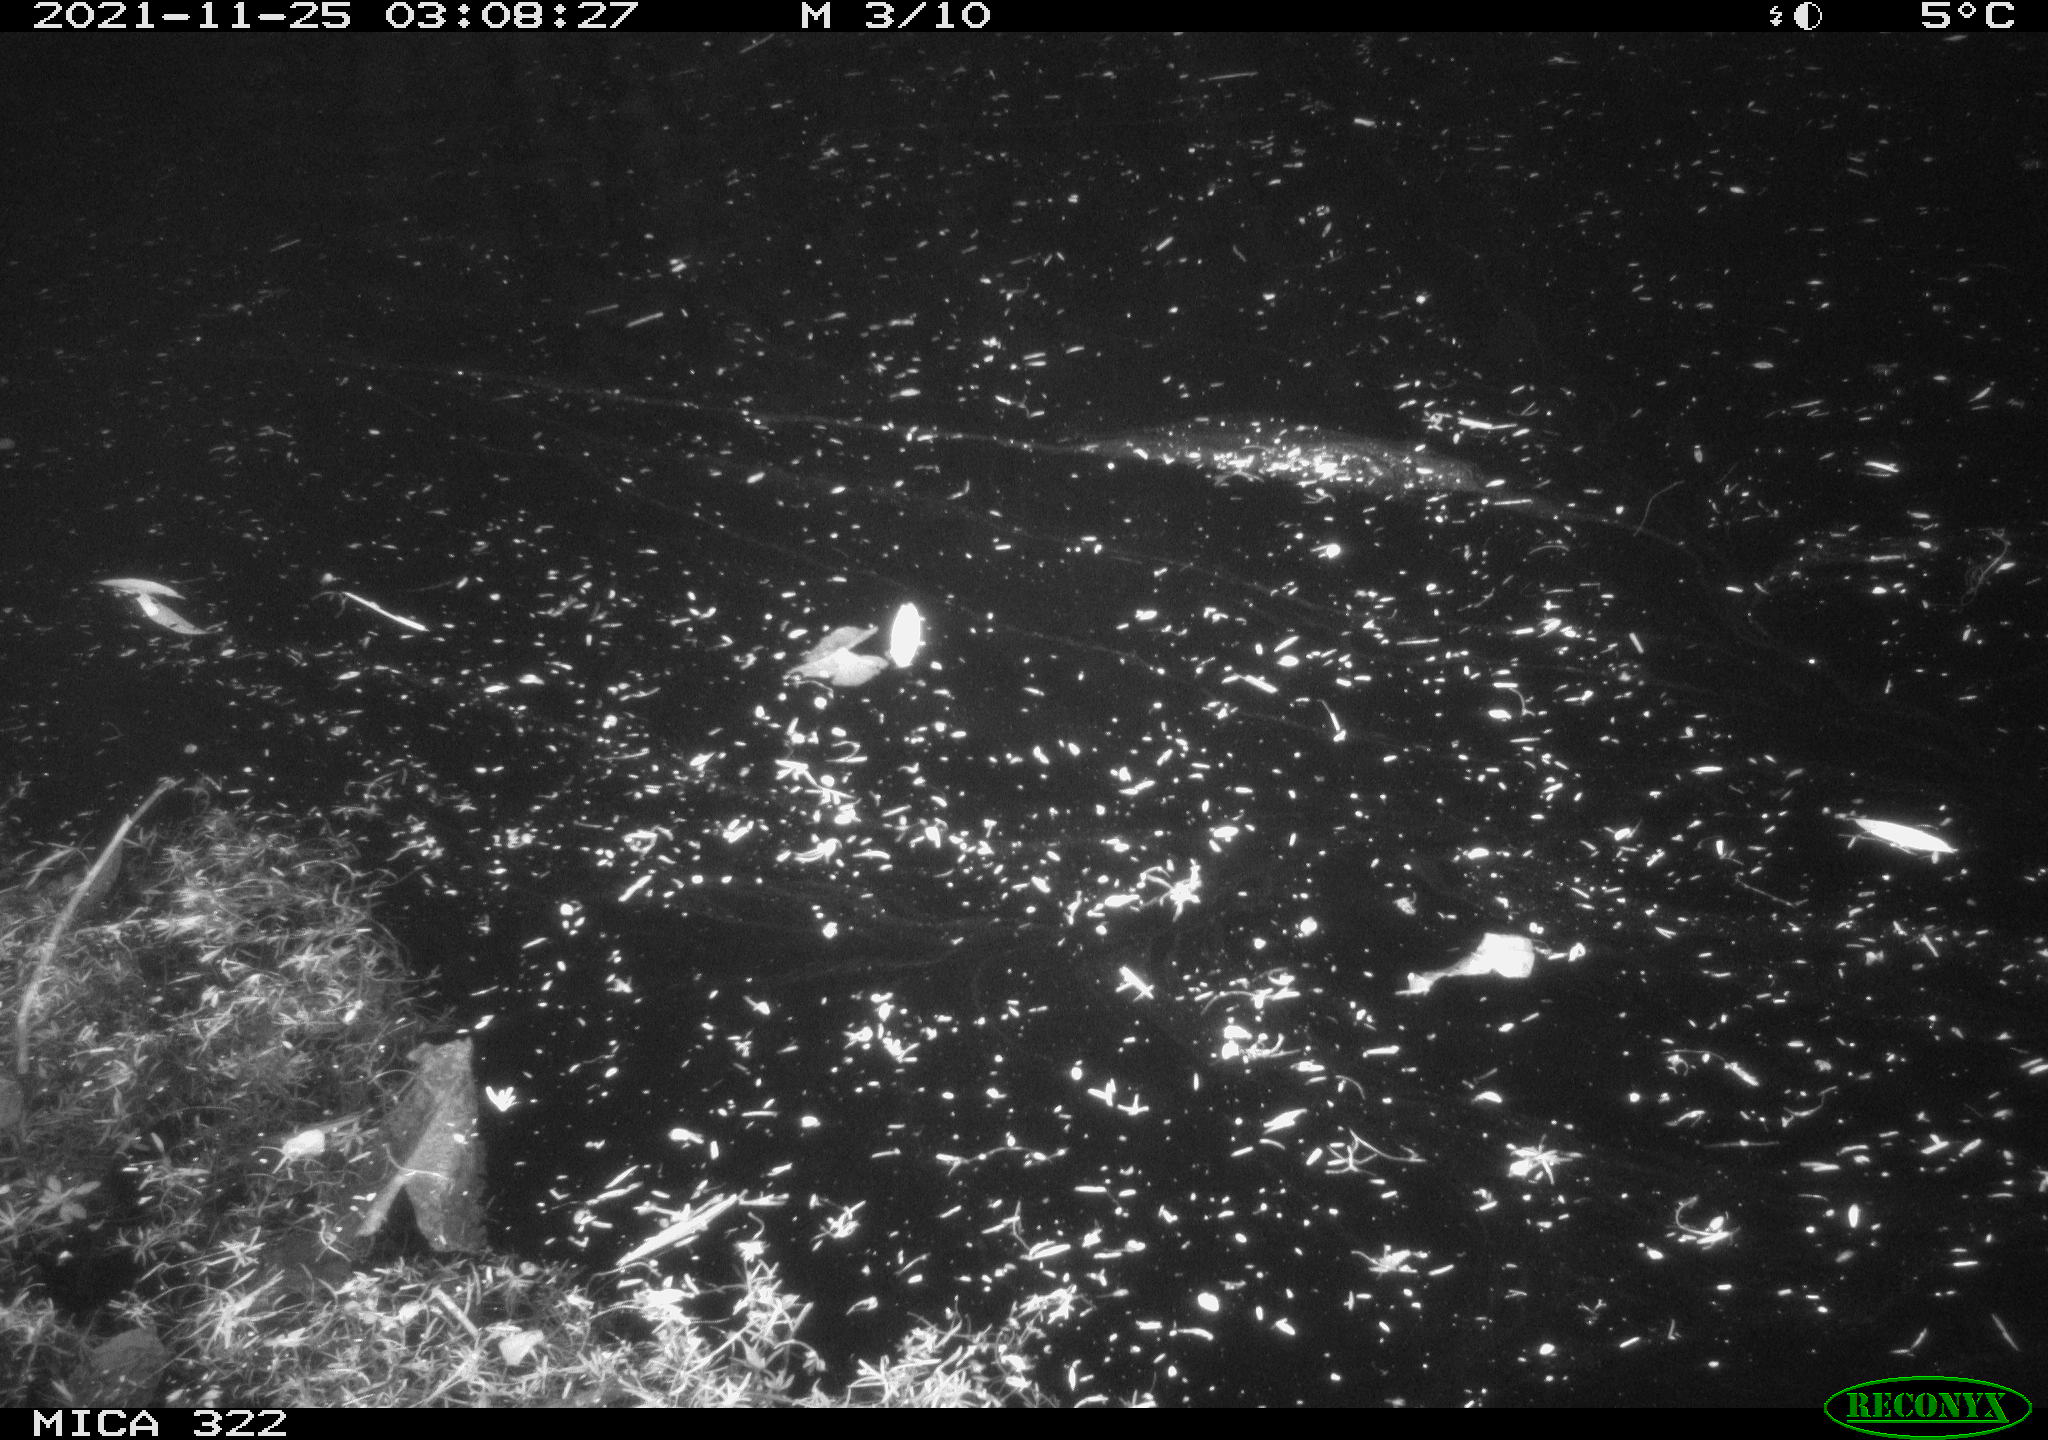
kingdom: Animalia
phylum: Chordata
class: Mammalia
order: Rodentia
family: Muridae
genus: Rattus
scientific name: Rattus norvegicus
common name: Brown rat
